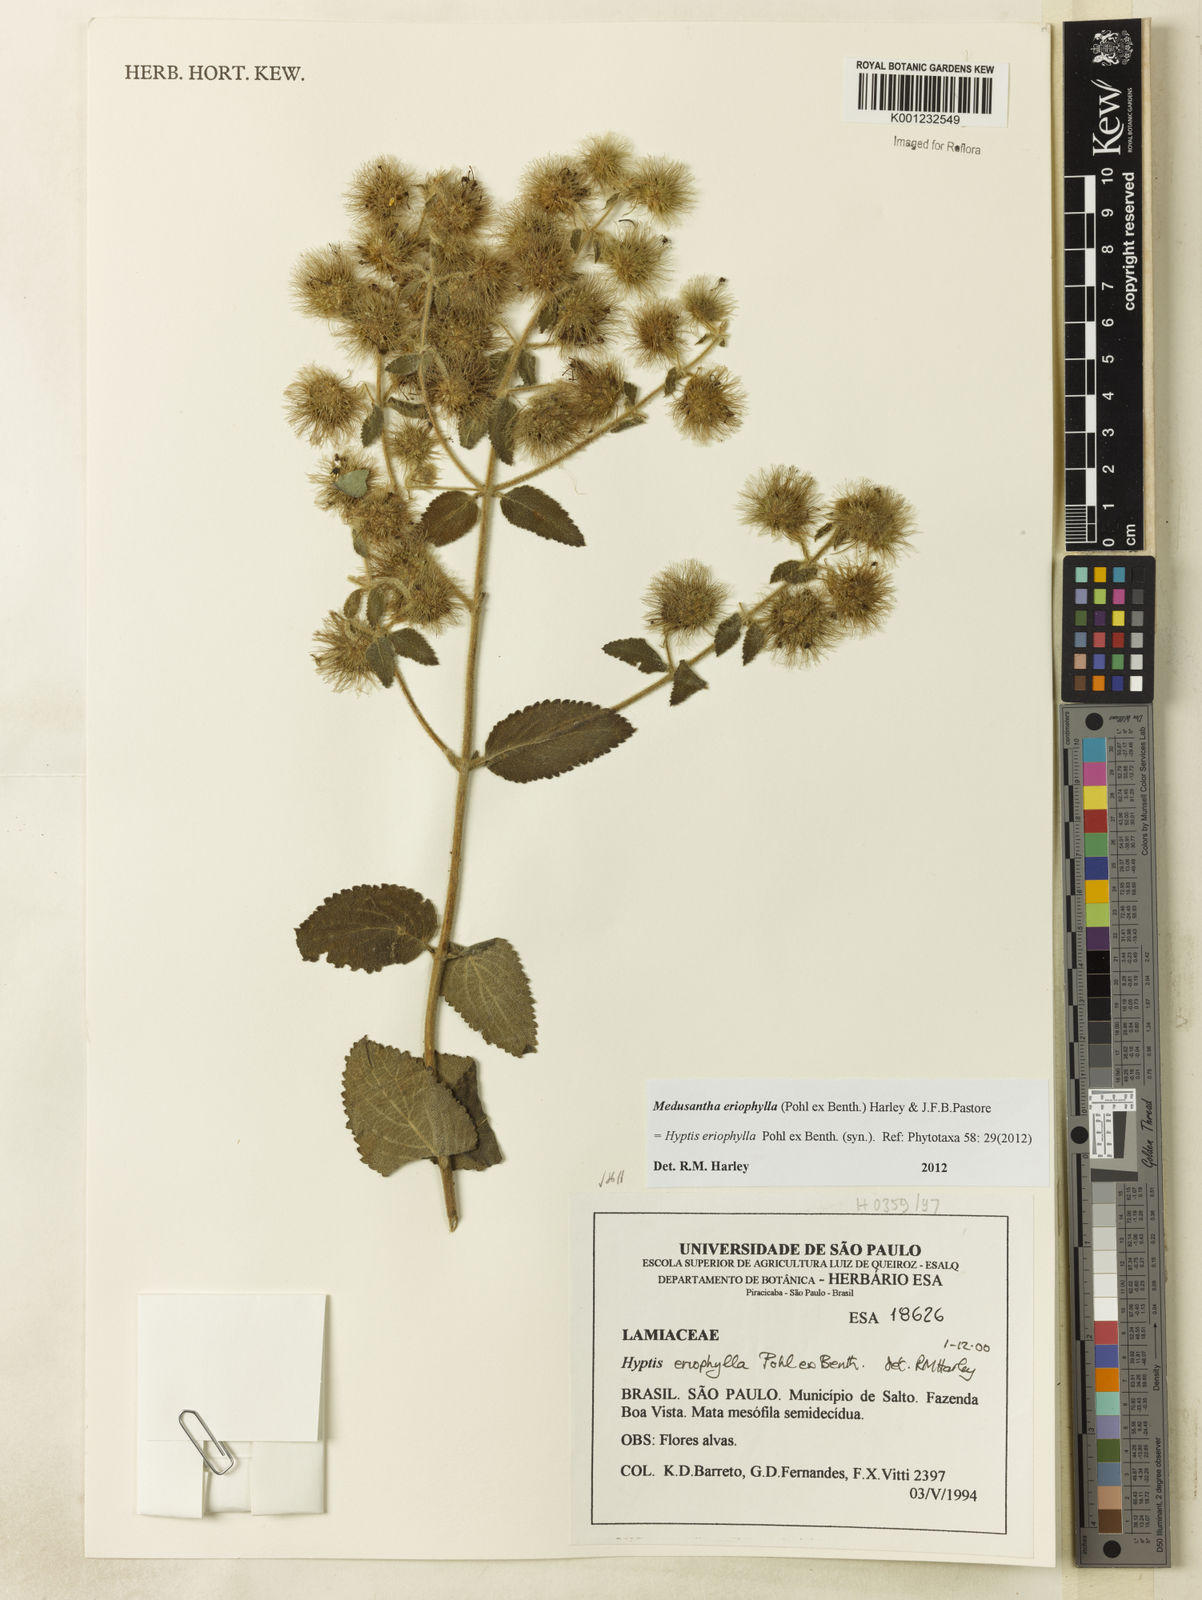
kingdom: Plantae
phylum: Tracheophyta
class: Magnoliopsida
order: Lamiales
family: Lamiaceae
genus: Medusantha
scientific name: Medusantha eriophylla
